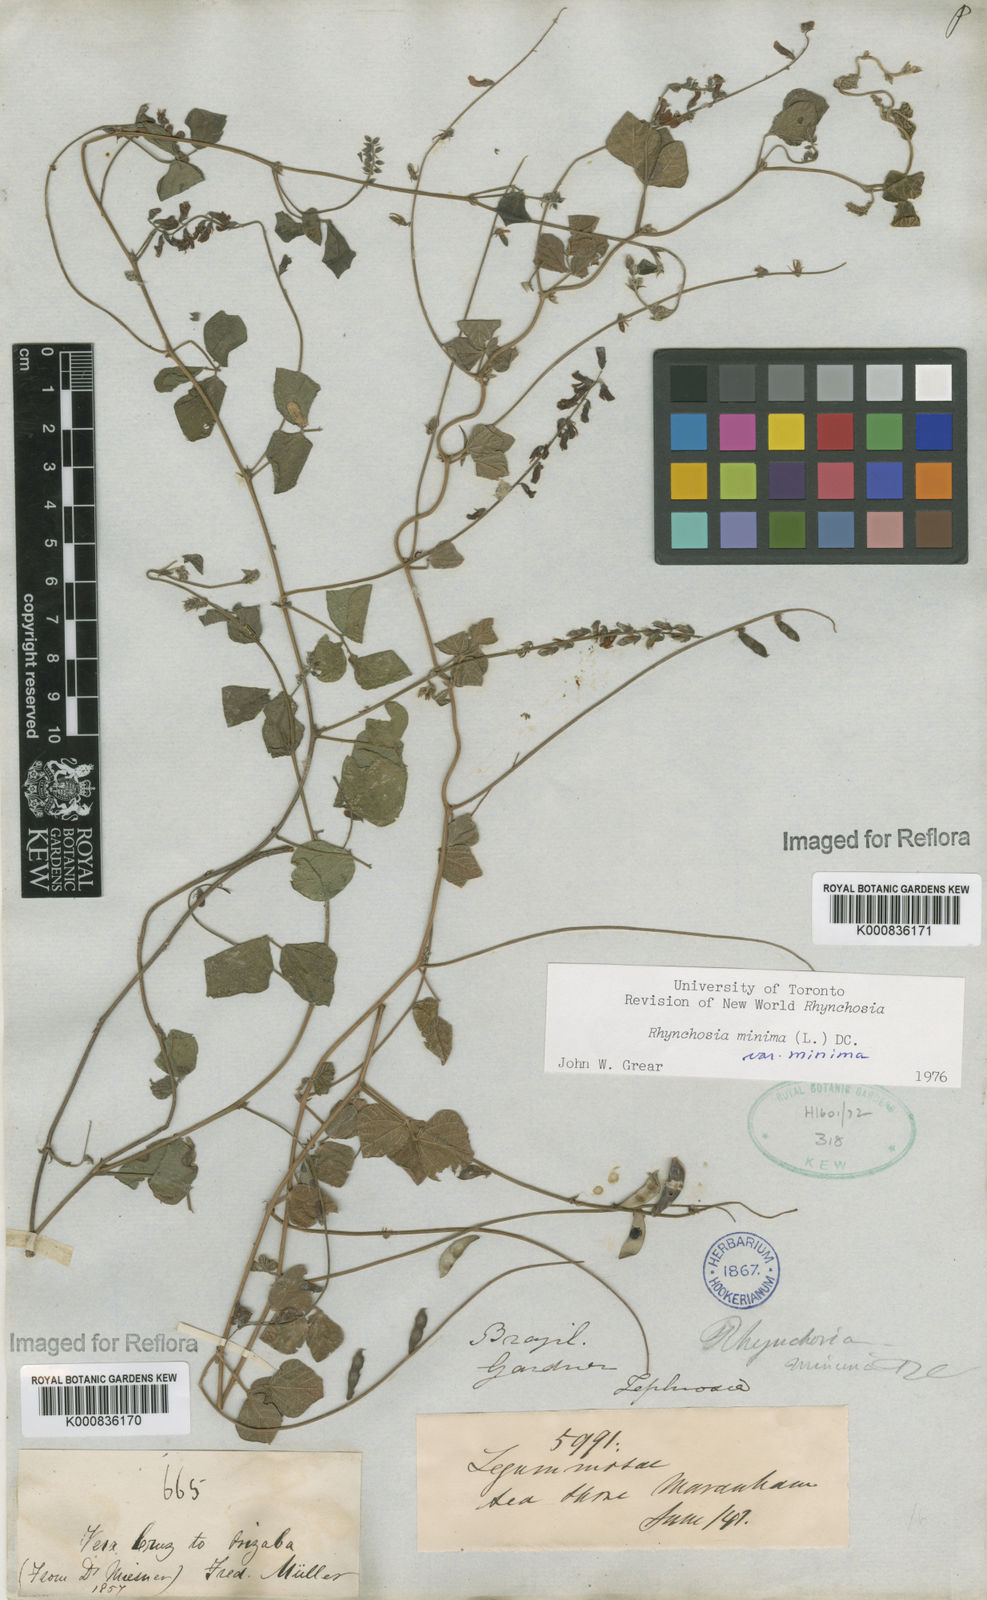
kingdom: Plantae
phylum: Tracheophyta
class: Magnoliopsida
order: Fabales
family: Fabaceae
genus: Rhynchosia
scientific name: Rhynchosia minima
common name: Least snoutbean
